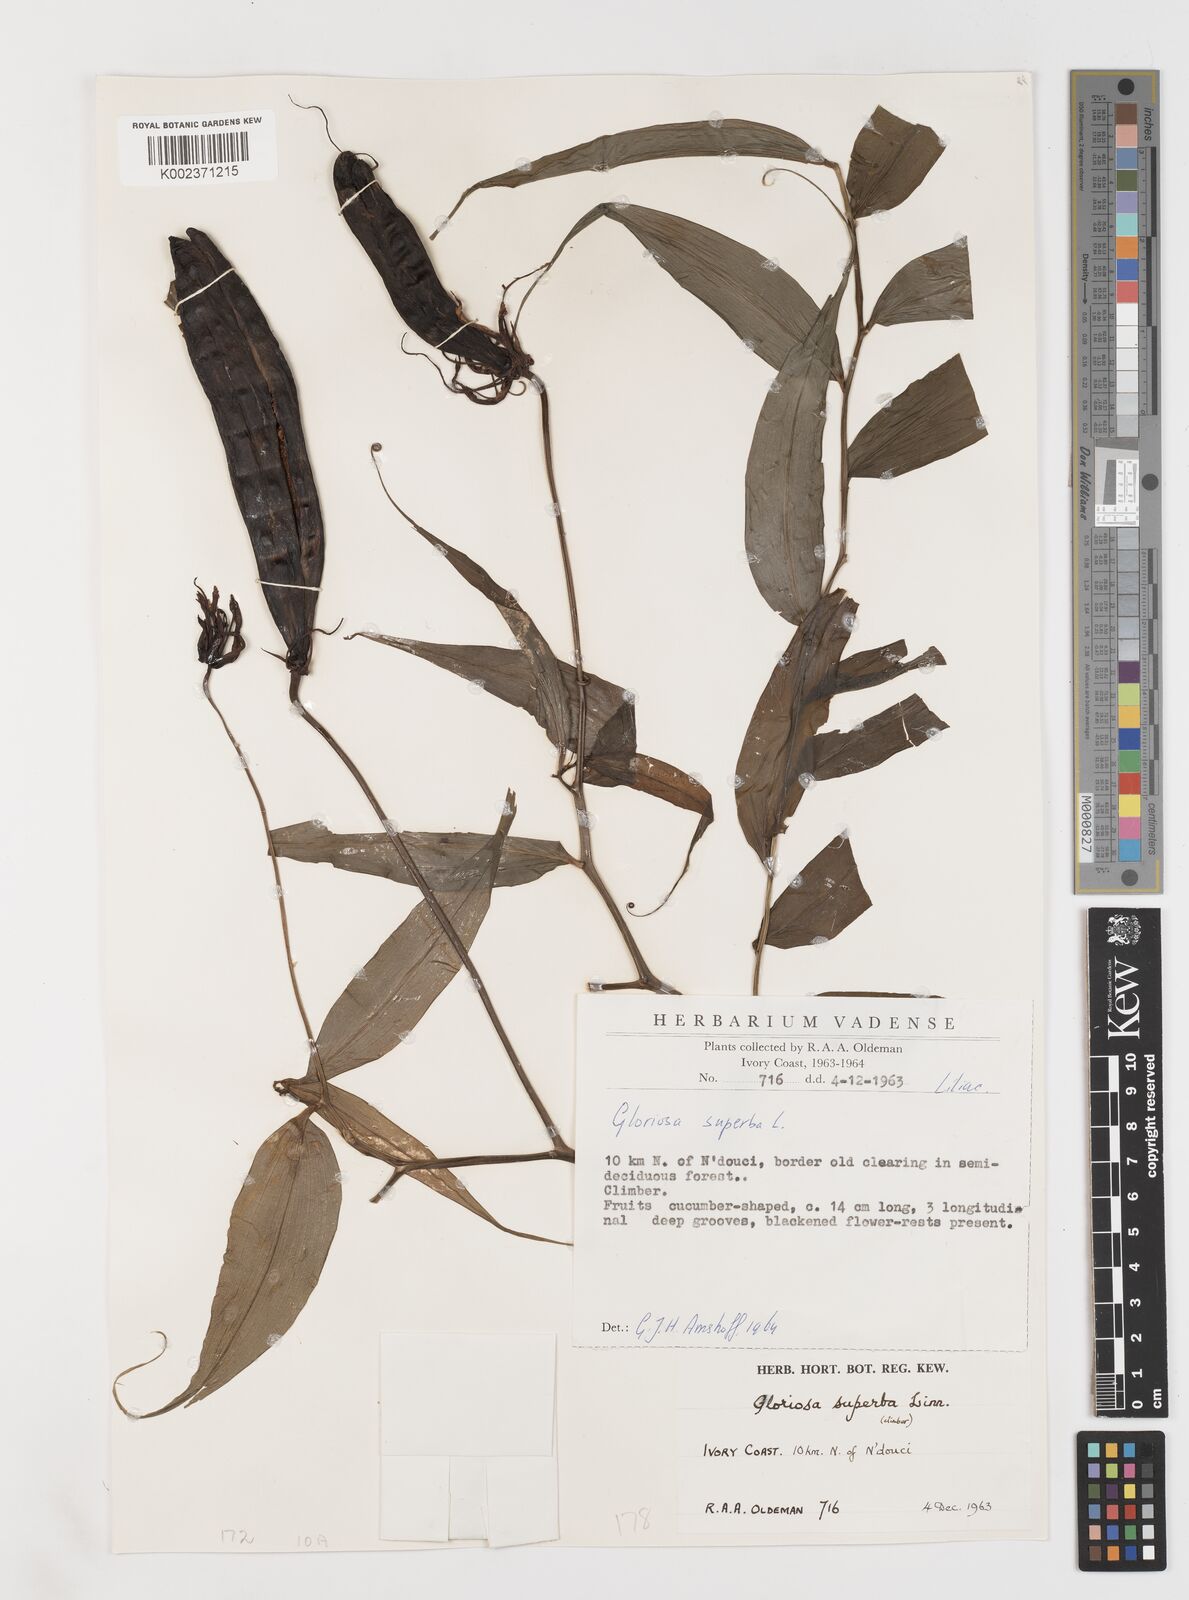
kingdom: Plantae
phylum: Tracheophyta
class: Liliopsida
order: Liliales
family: Colchicaceae
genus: Gloriosa
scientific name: Gloriosa superba
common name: Flame lily
